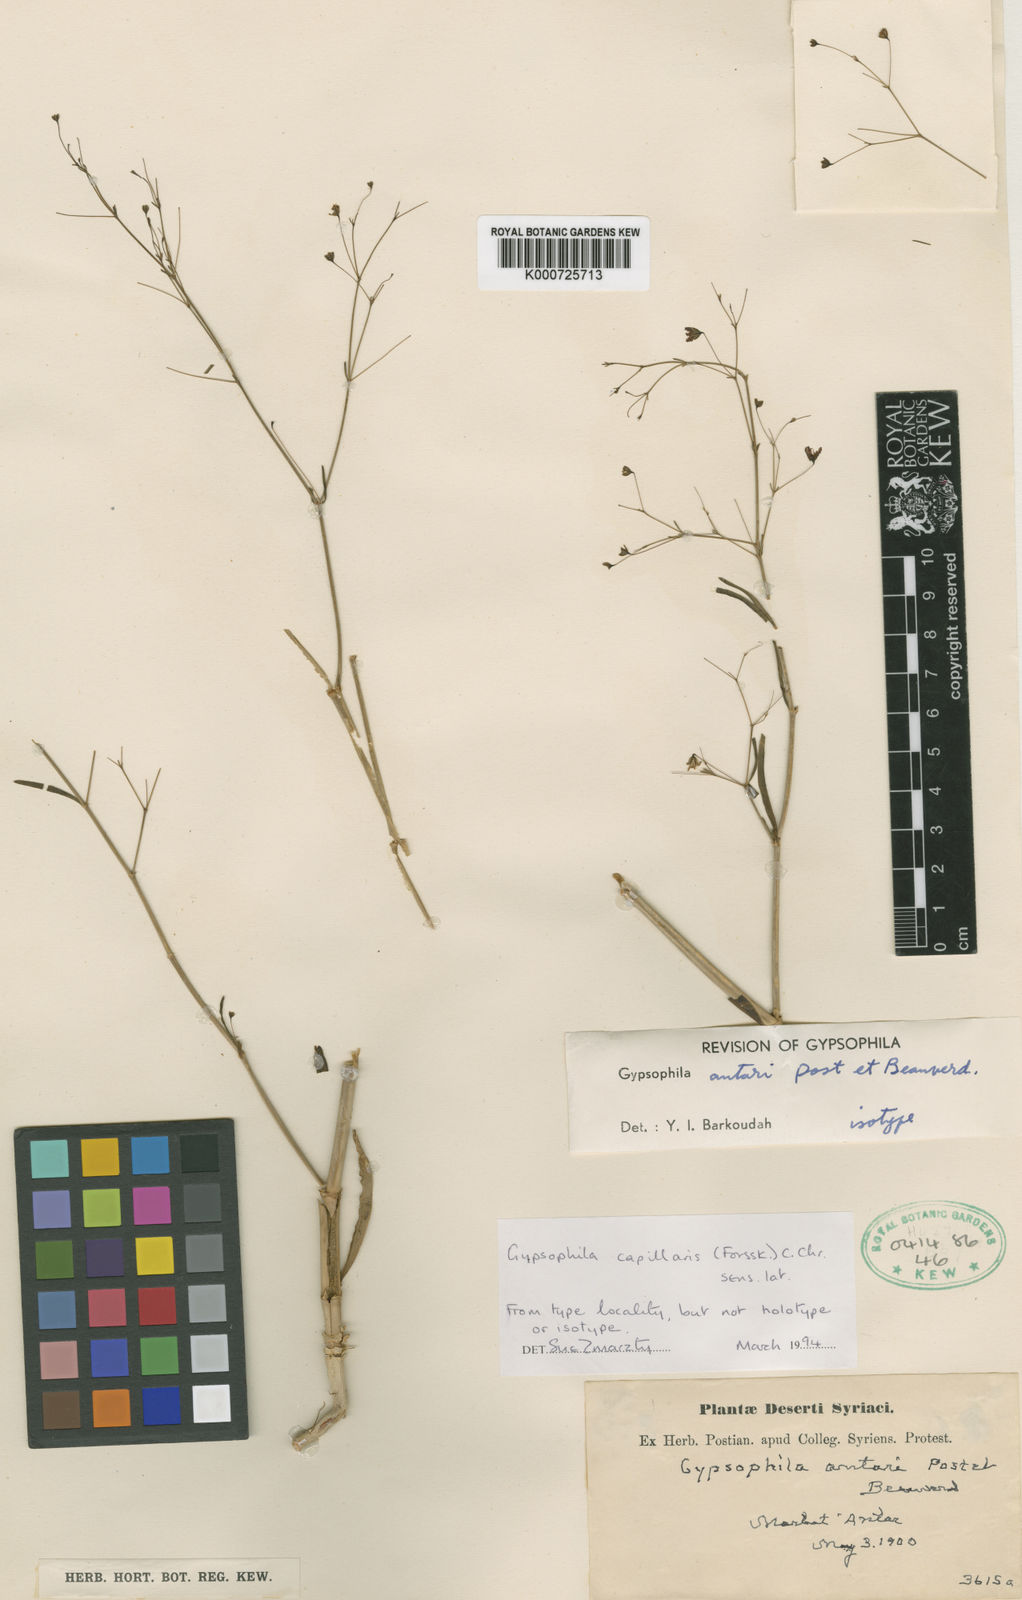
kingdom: Plantae
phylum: Tracheophyta
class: Magnoliopsida
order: Caryophyllales
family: Caryophyllaceae
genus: Gypsophila
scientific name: Gypsophila capillaris
